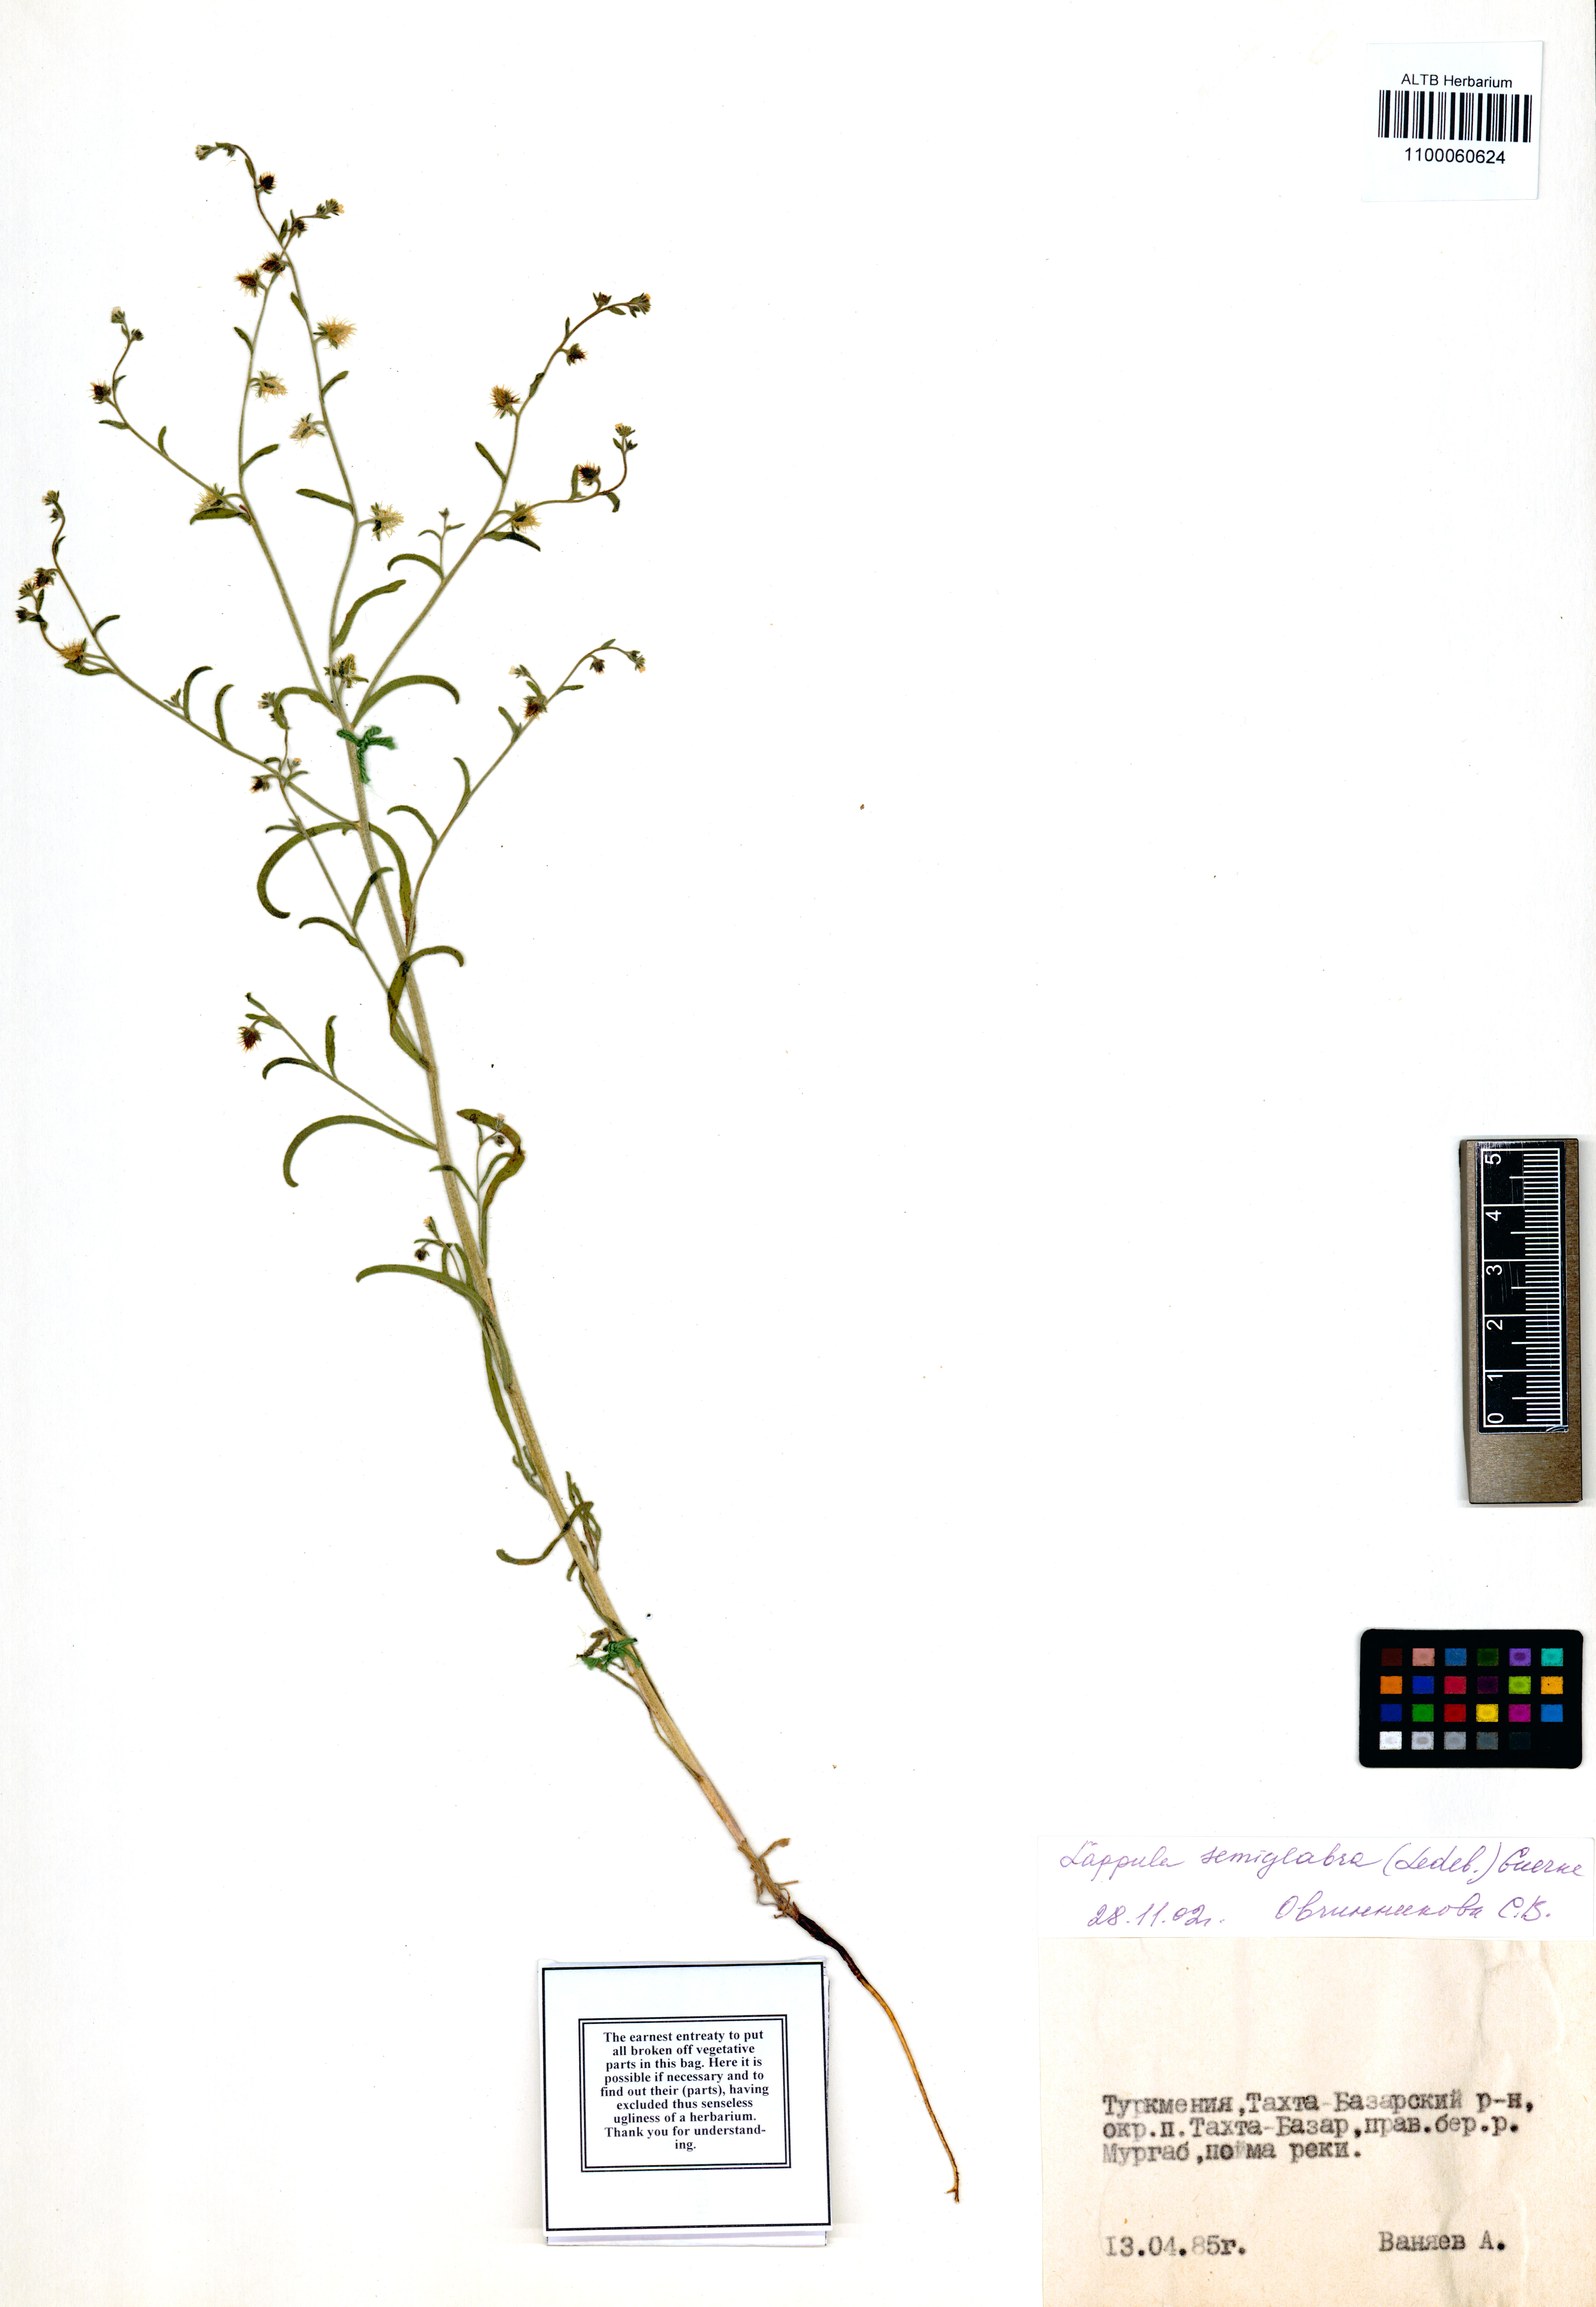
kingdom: Plantae
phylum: Tracheophyta
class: Magnoliopsida
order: Boraginales
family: Boraginaceae
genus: Lappula
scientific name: Lappula patula
